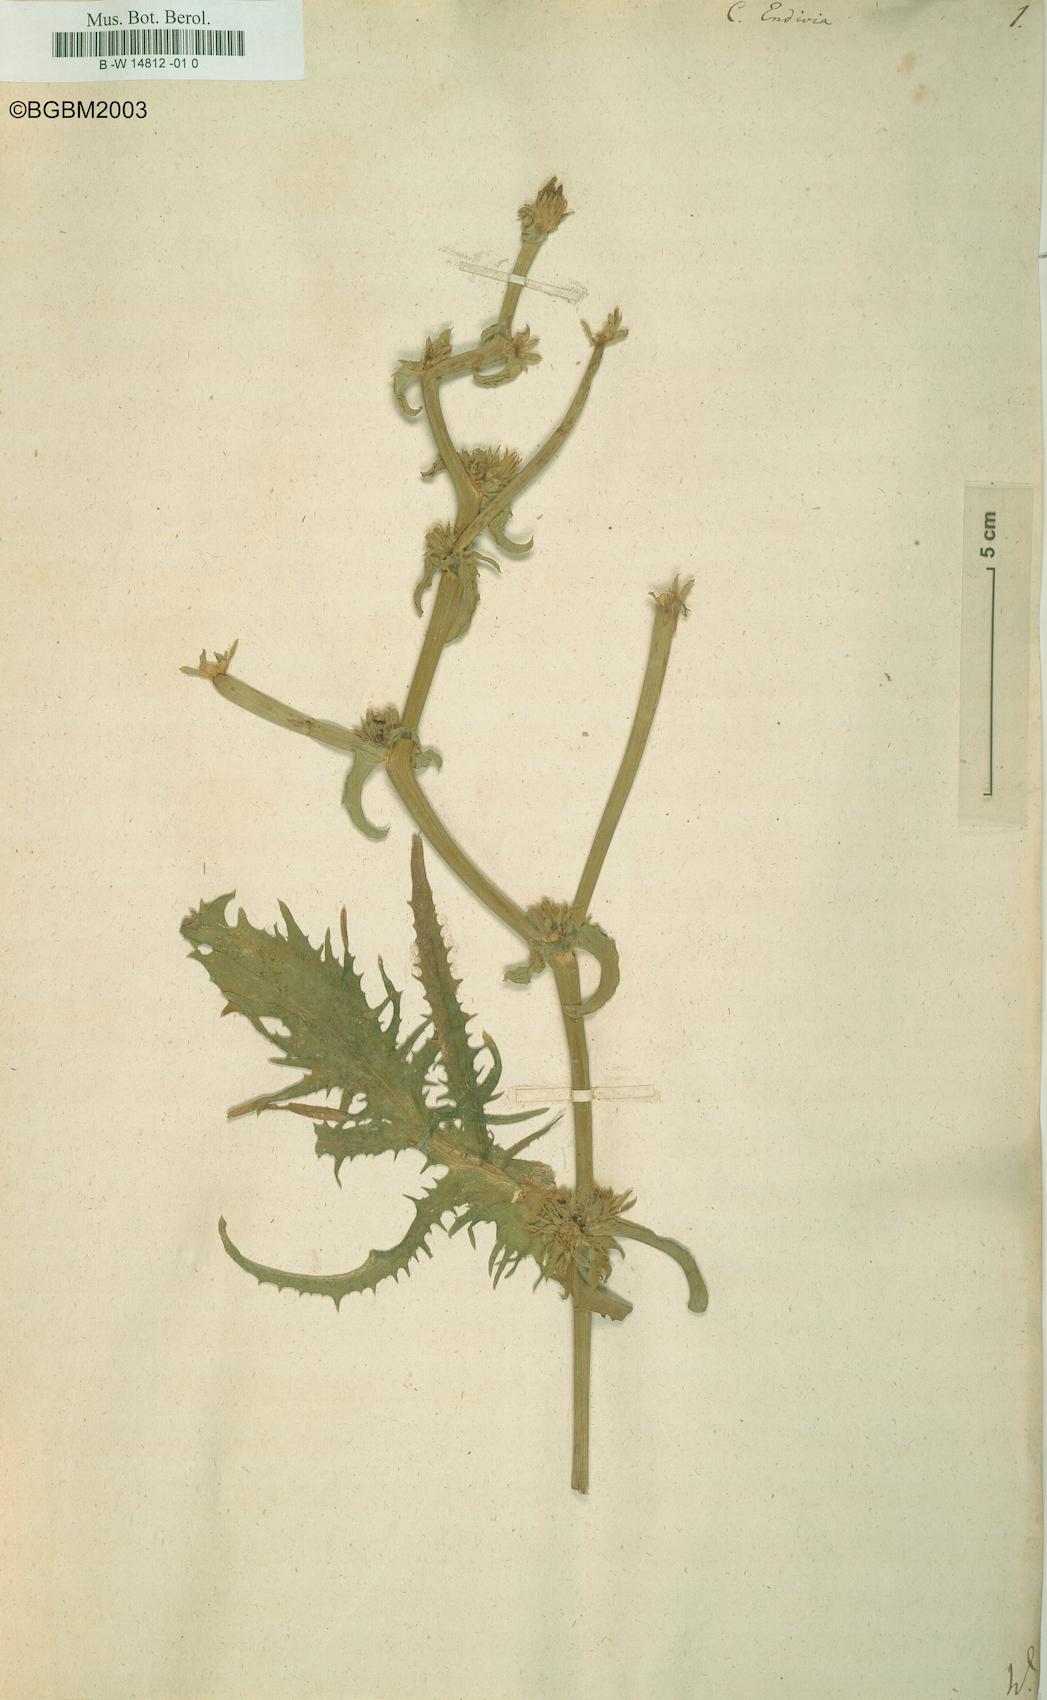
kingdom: Plantae
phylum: Tracheophyta
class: Magnoliopsida
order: Asterales
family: Asteraceae
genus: Cichorium
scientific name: Cichorium endivia
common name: Endive
